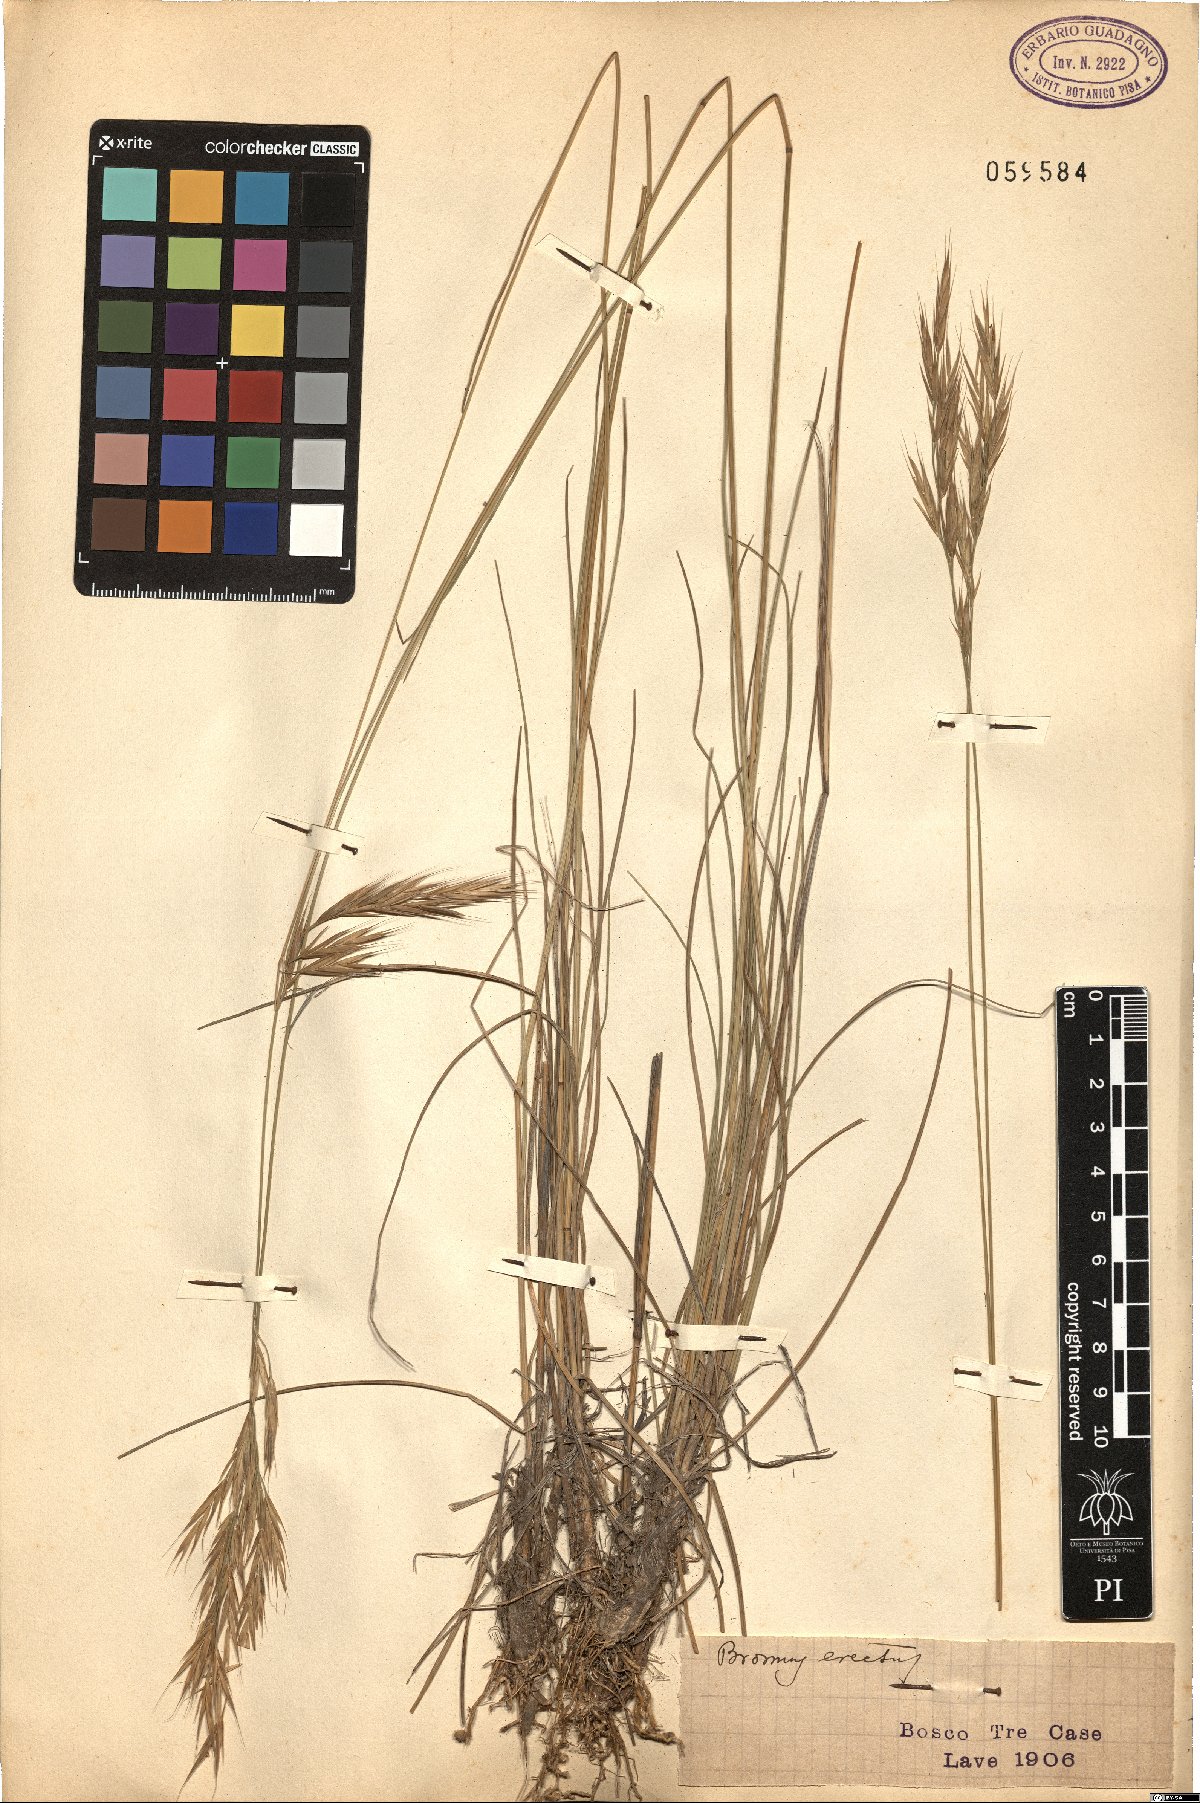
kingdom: Plantae
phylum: Tracheophyta
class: Liliopsida
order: Poales
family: Poaceae
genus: Bromus
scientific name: Bromus erectus
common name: Erect brome
